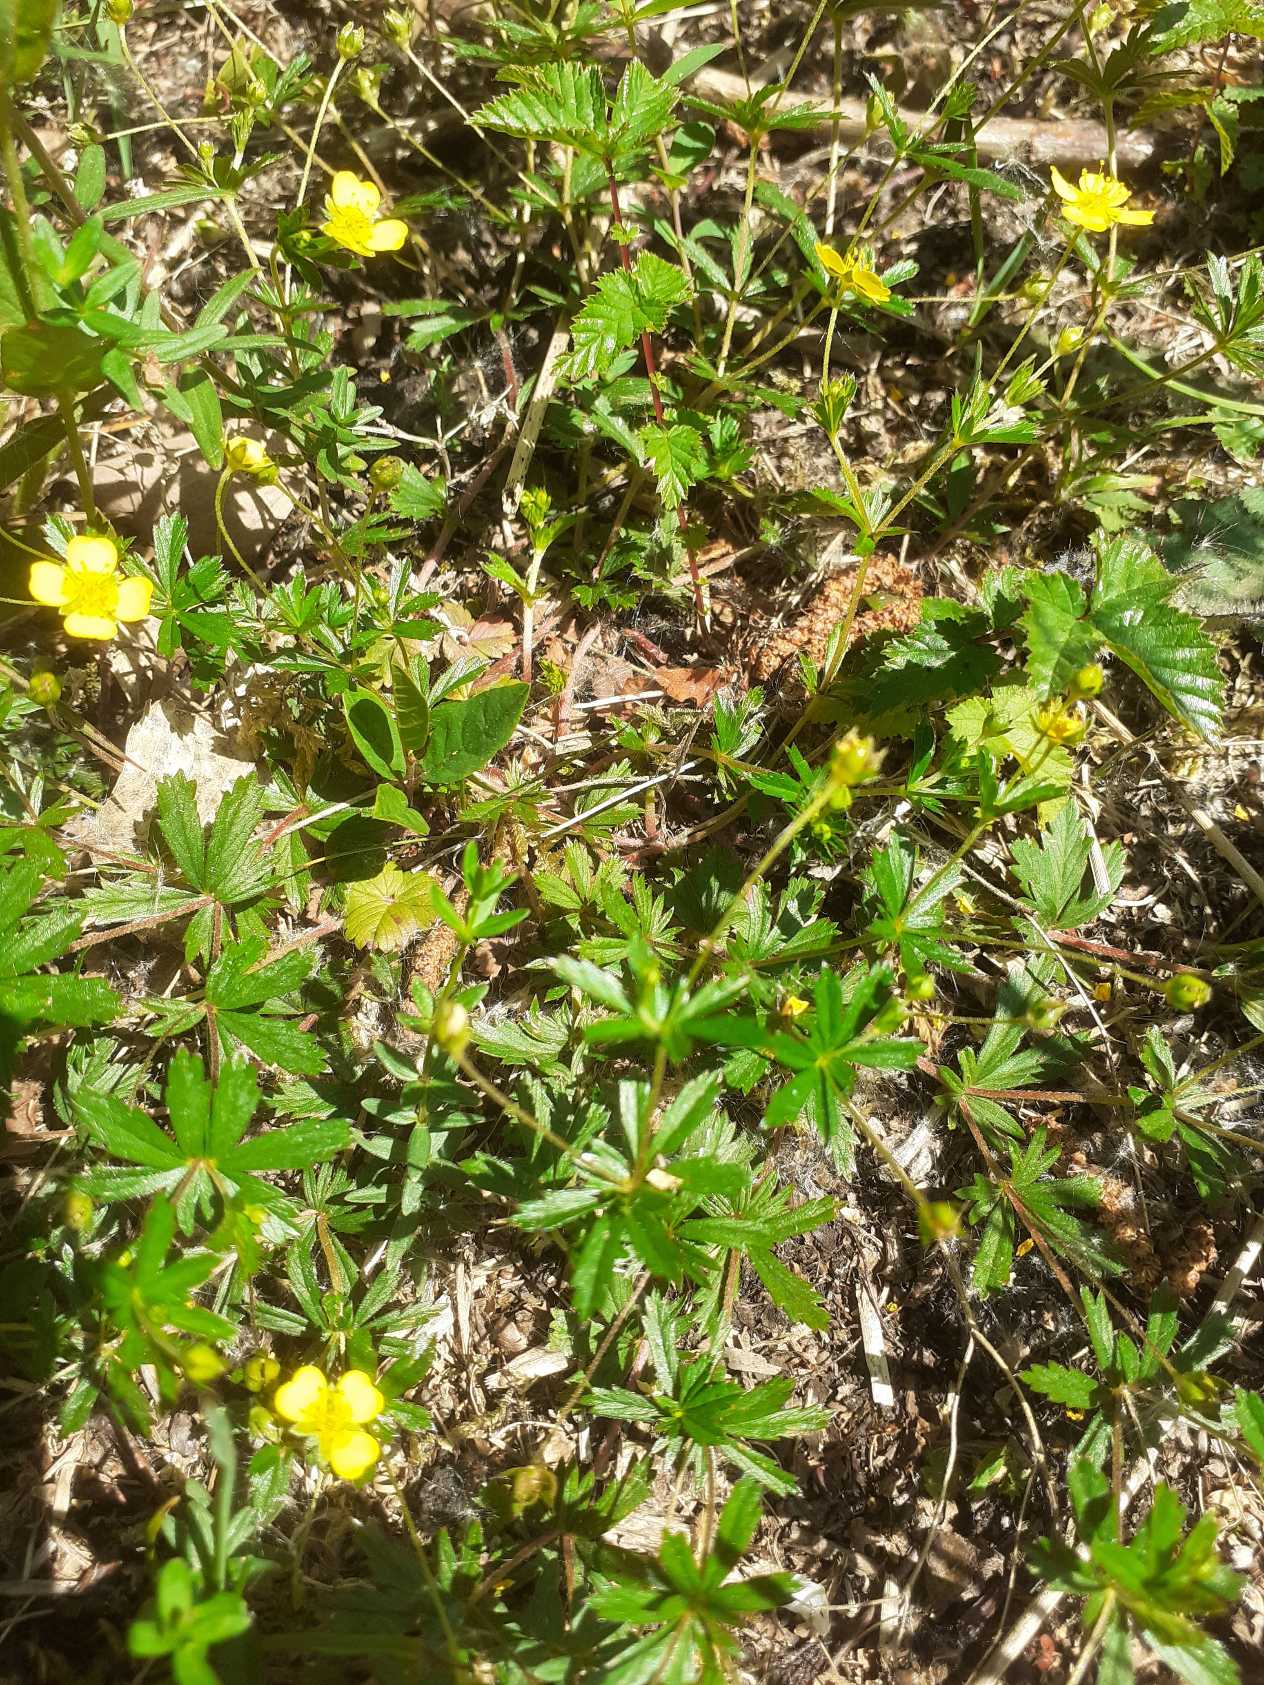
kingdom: Plantae
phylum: Tracheophyta
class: Magnoliopsida
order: Rosales
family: Rosaceae
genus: Potentilla
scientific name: Potentilla erecta
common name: Tormentil
